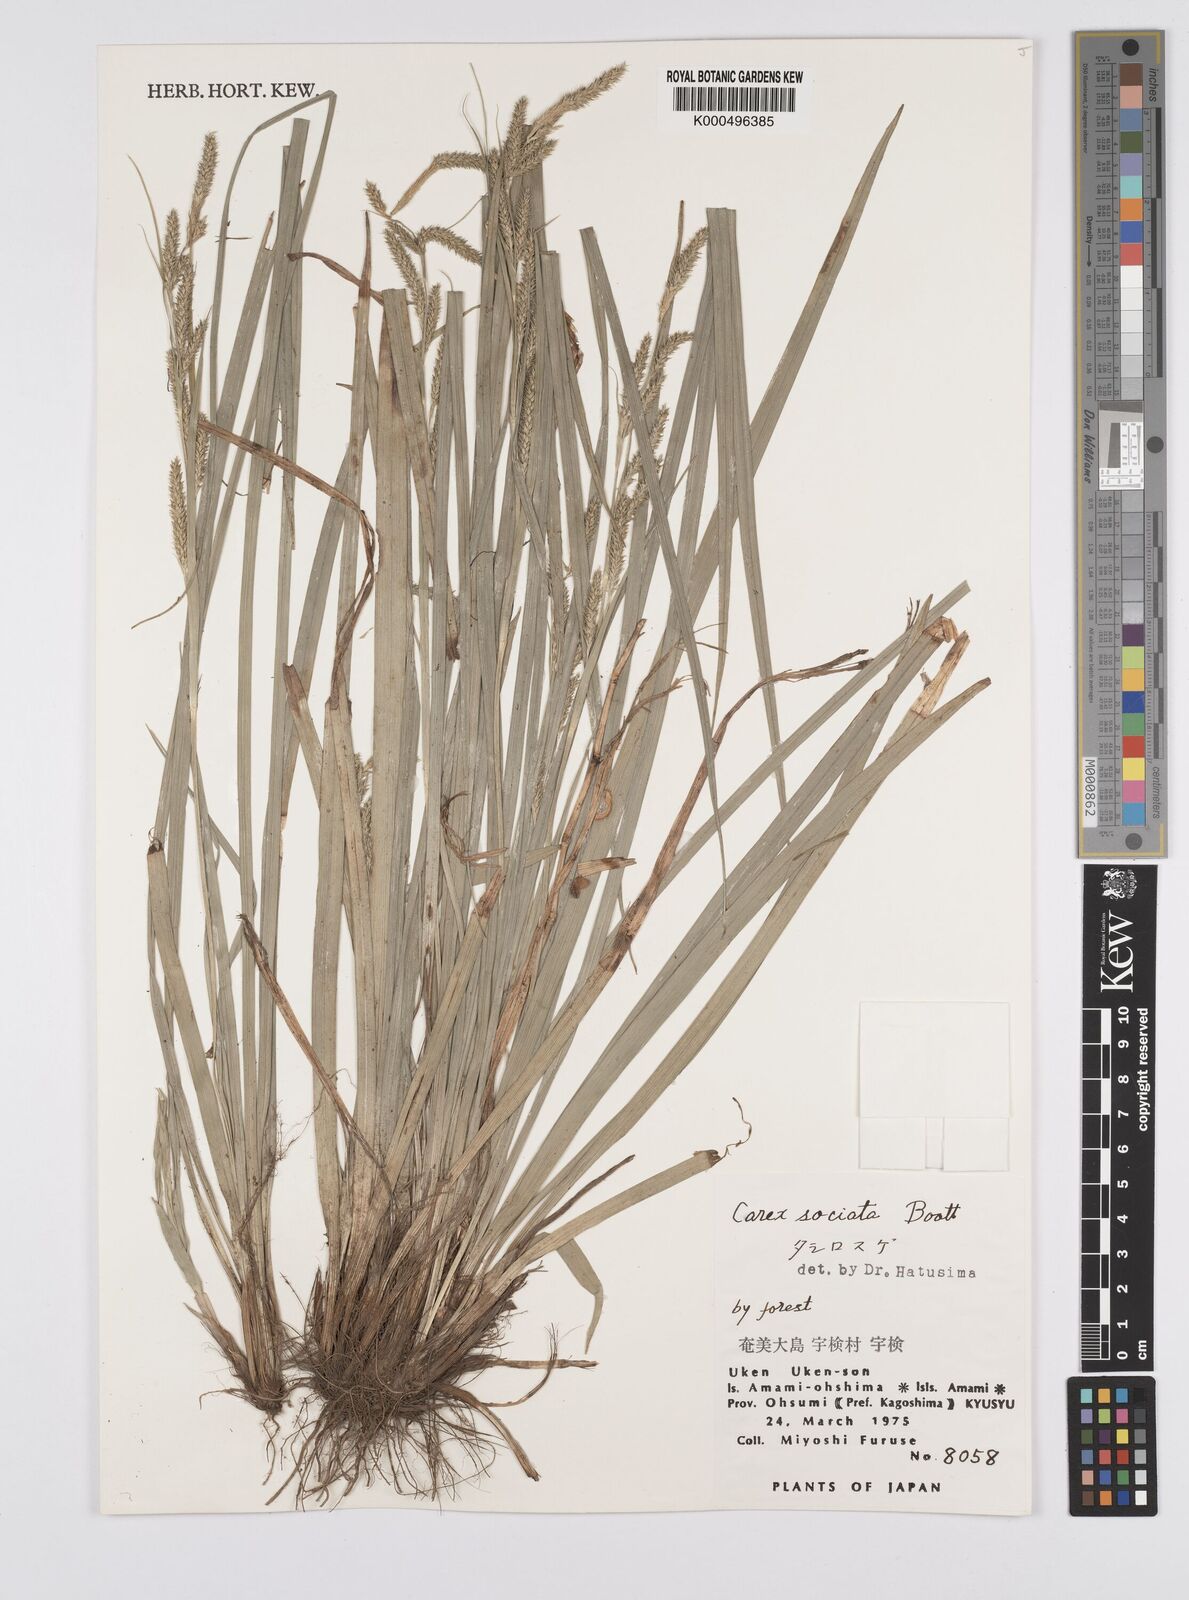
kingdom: Plantae
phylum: Tracheophyta
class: Liliopsida
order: Poales
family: Cyperaceae
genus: Carex
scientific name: Carex chinensis
